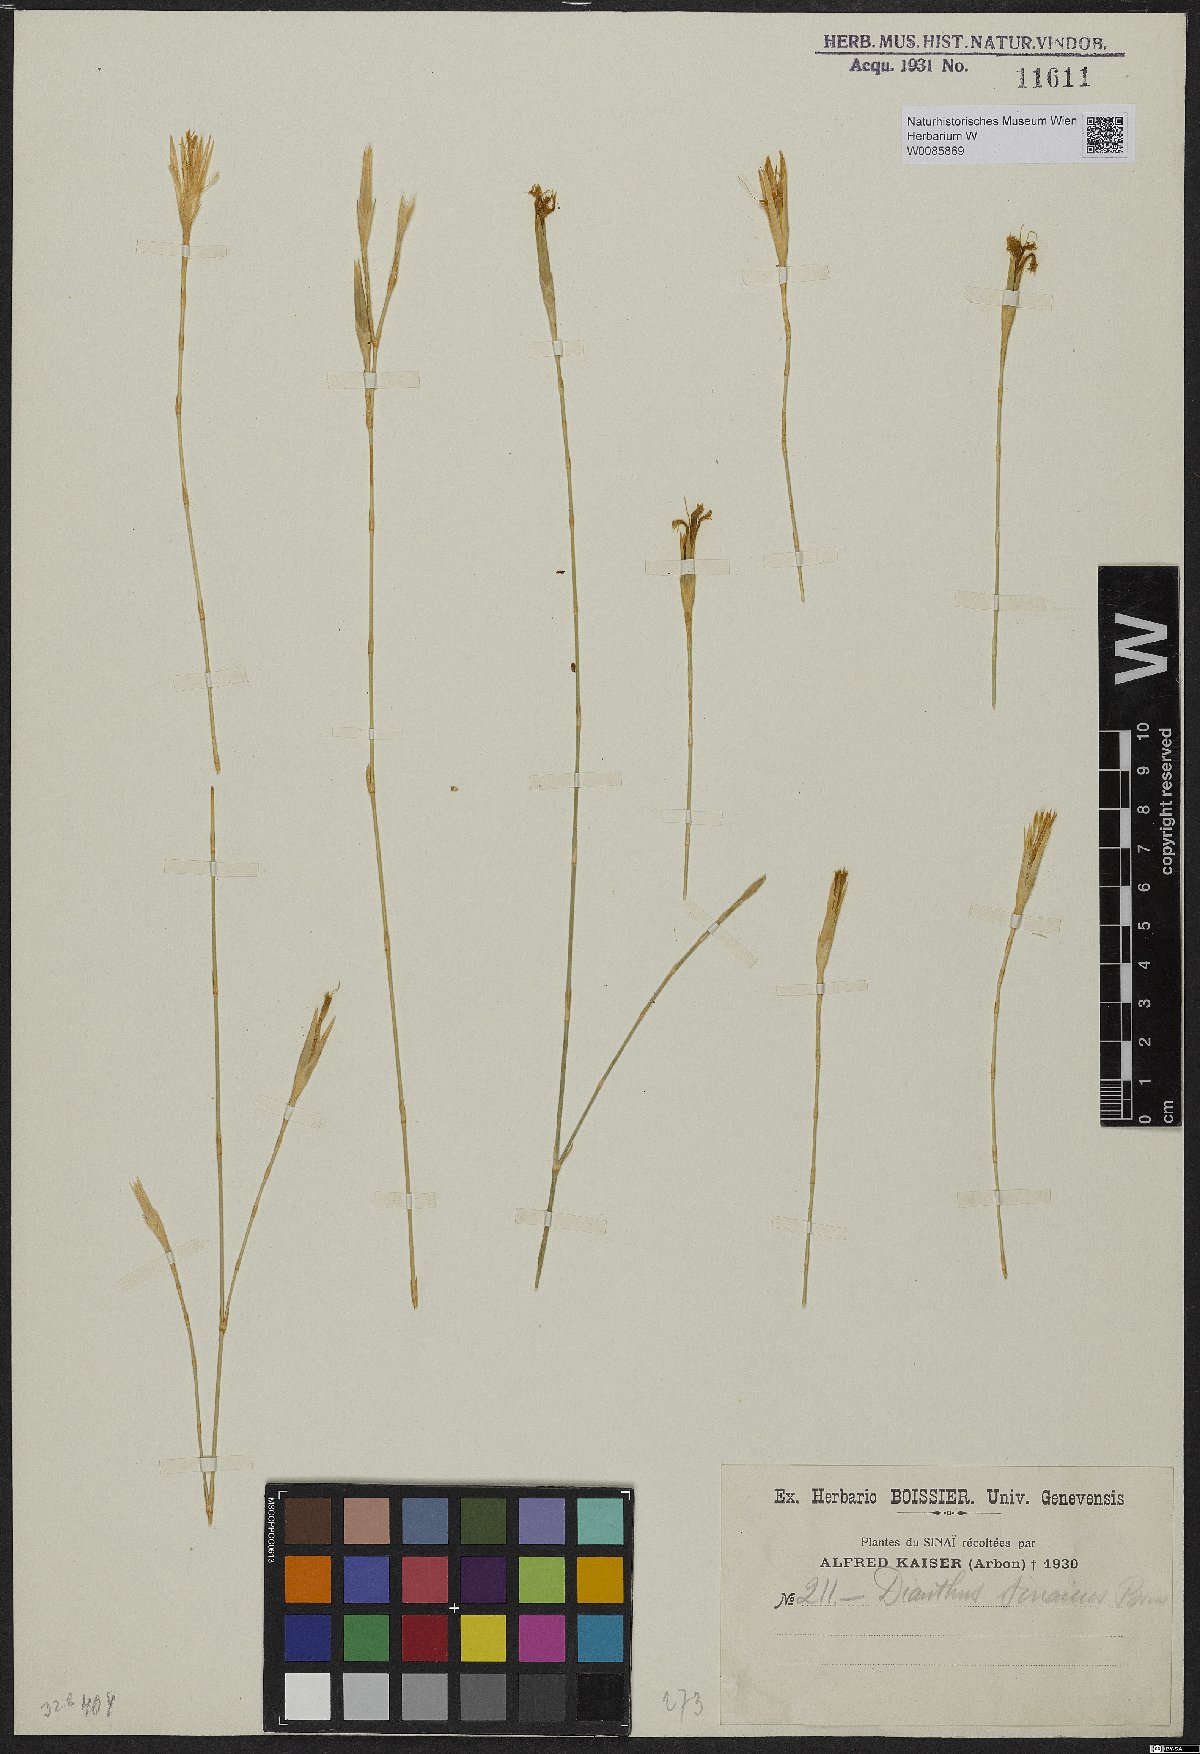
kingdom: Plantae
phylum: Tracheophyta
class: Magnoliopsida
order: Caryophyllales
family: Caryophyllaceae
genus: Dianthus
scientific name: Dianthus sinaicus
